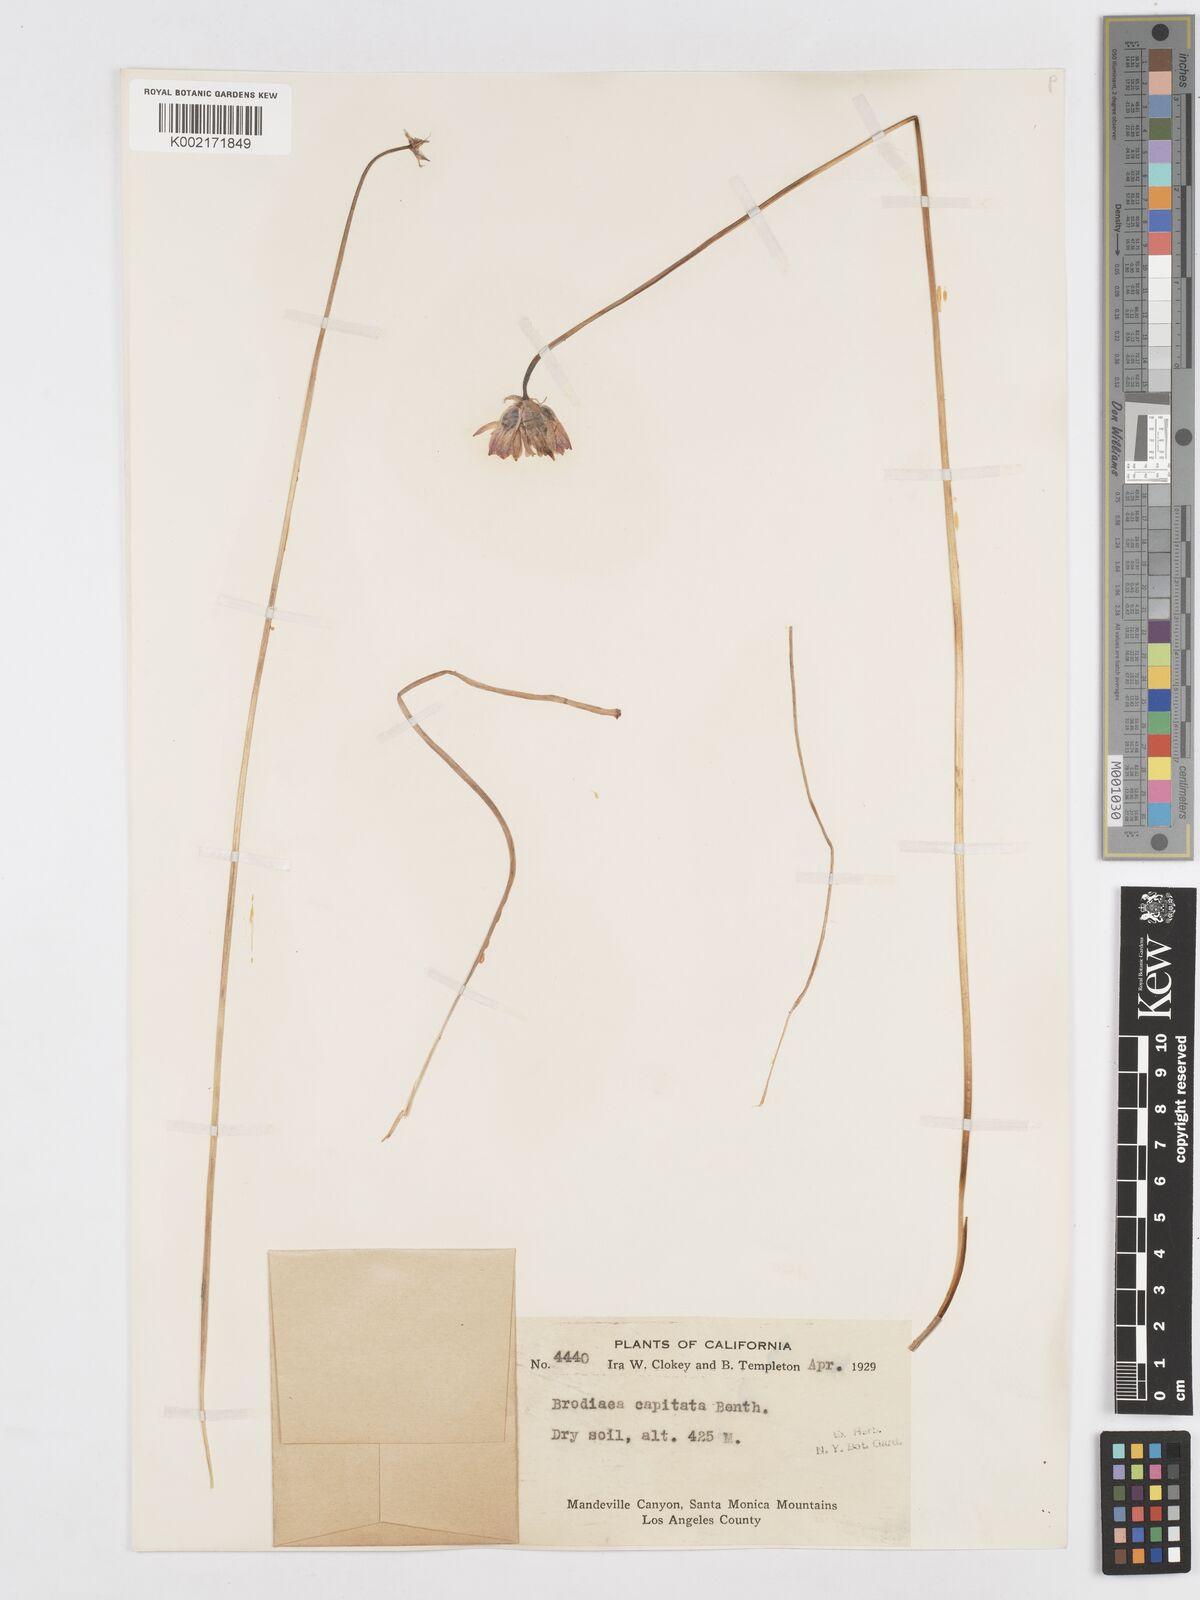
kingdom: Plantae
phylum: Tracheophyta
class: Liliopsida
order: Asparagales
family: Asparagaceae
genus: Dichelostemma
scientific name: Dichelostemma congestum
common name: Fork-tooth ookow
